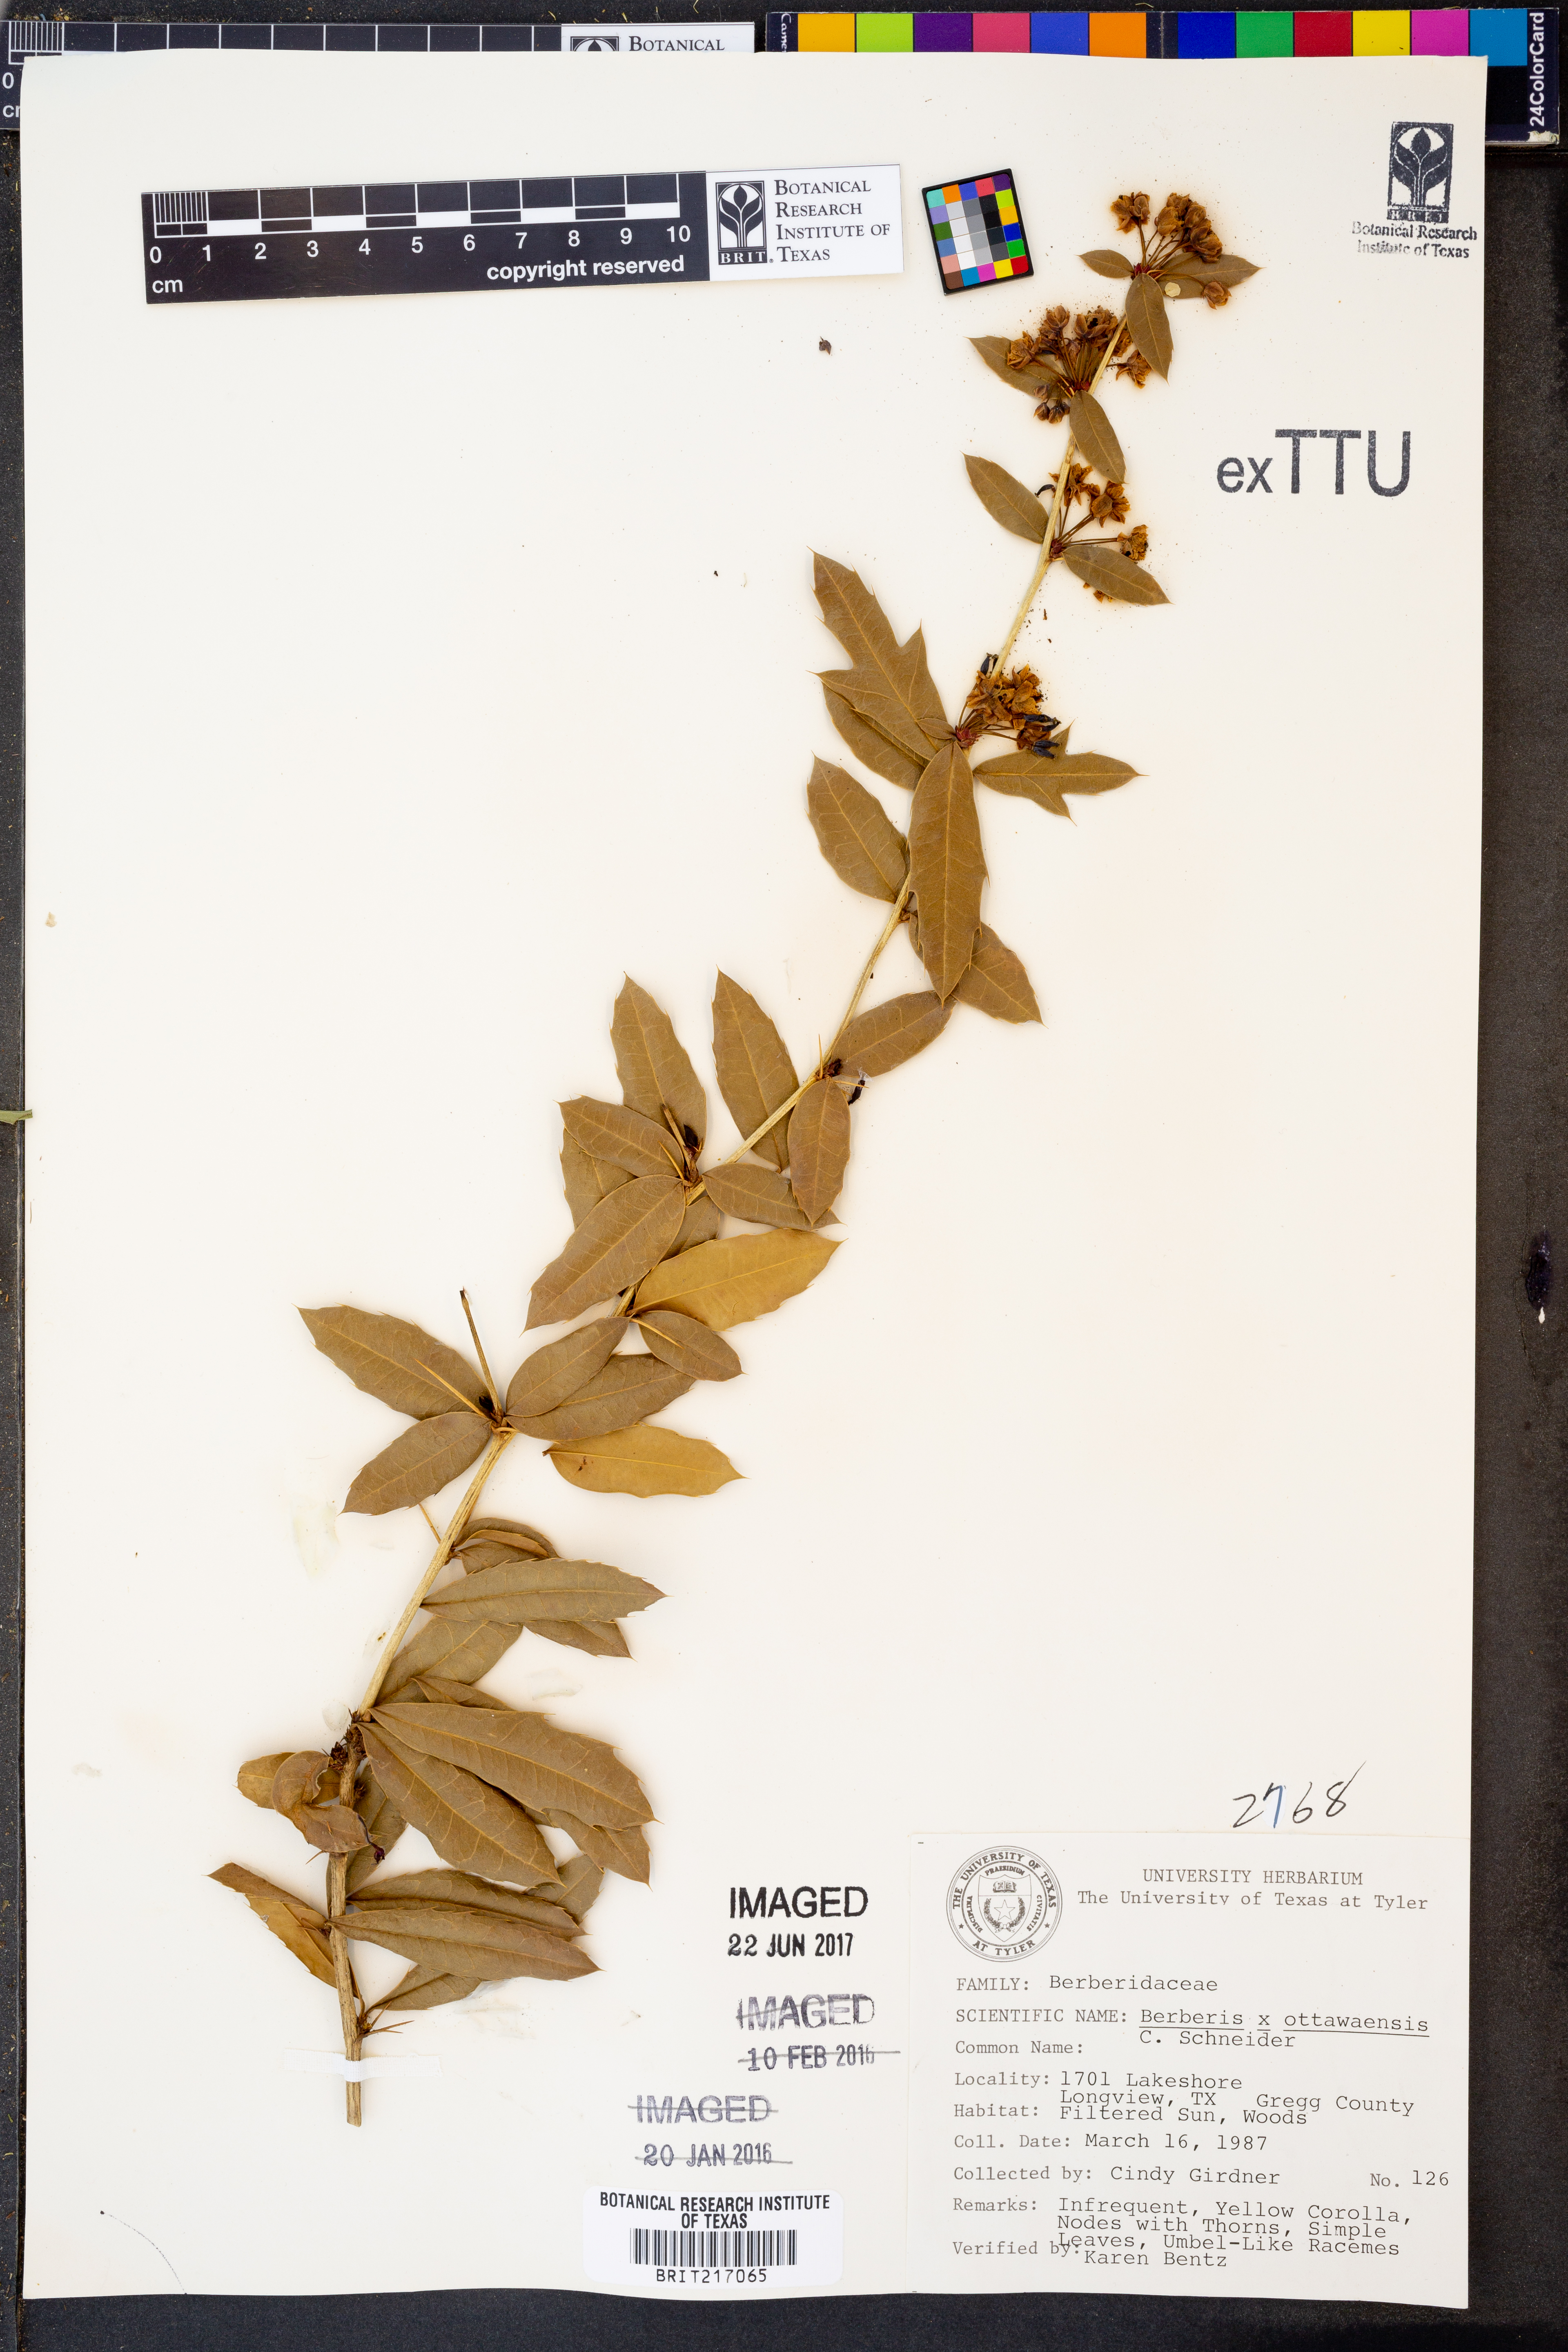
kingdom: Plantae
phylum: Tracheophyta
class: Magnoliopsida
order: Ranunculales
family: Berberidaceae
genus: Berberis
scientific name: Berberis
